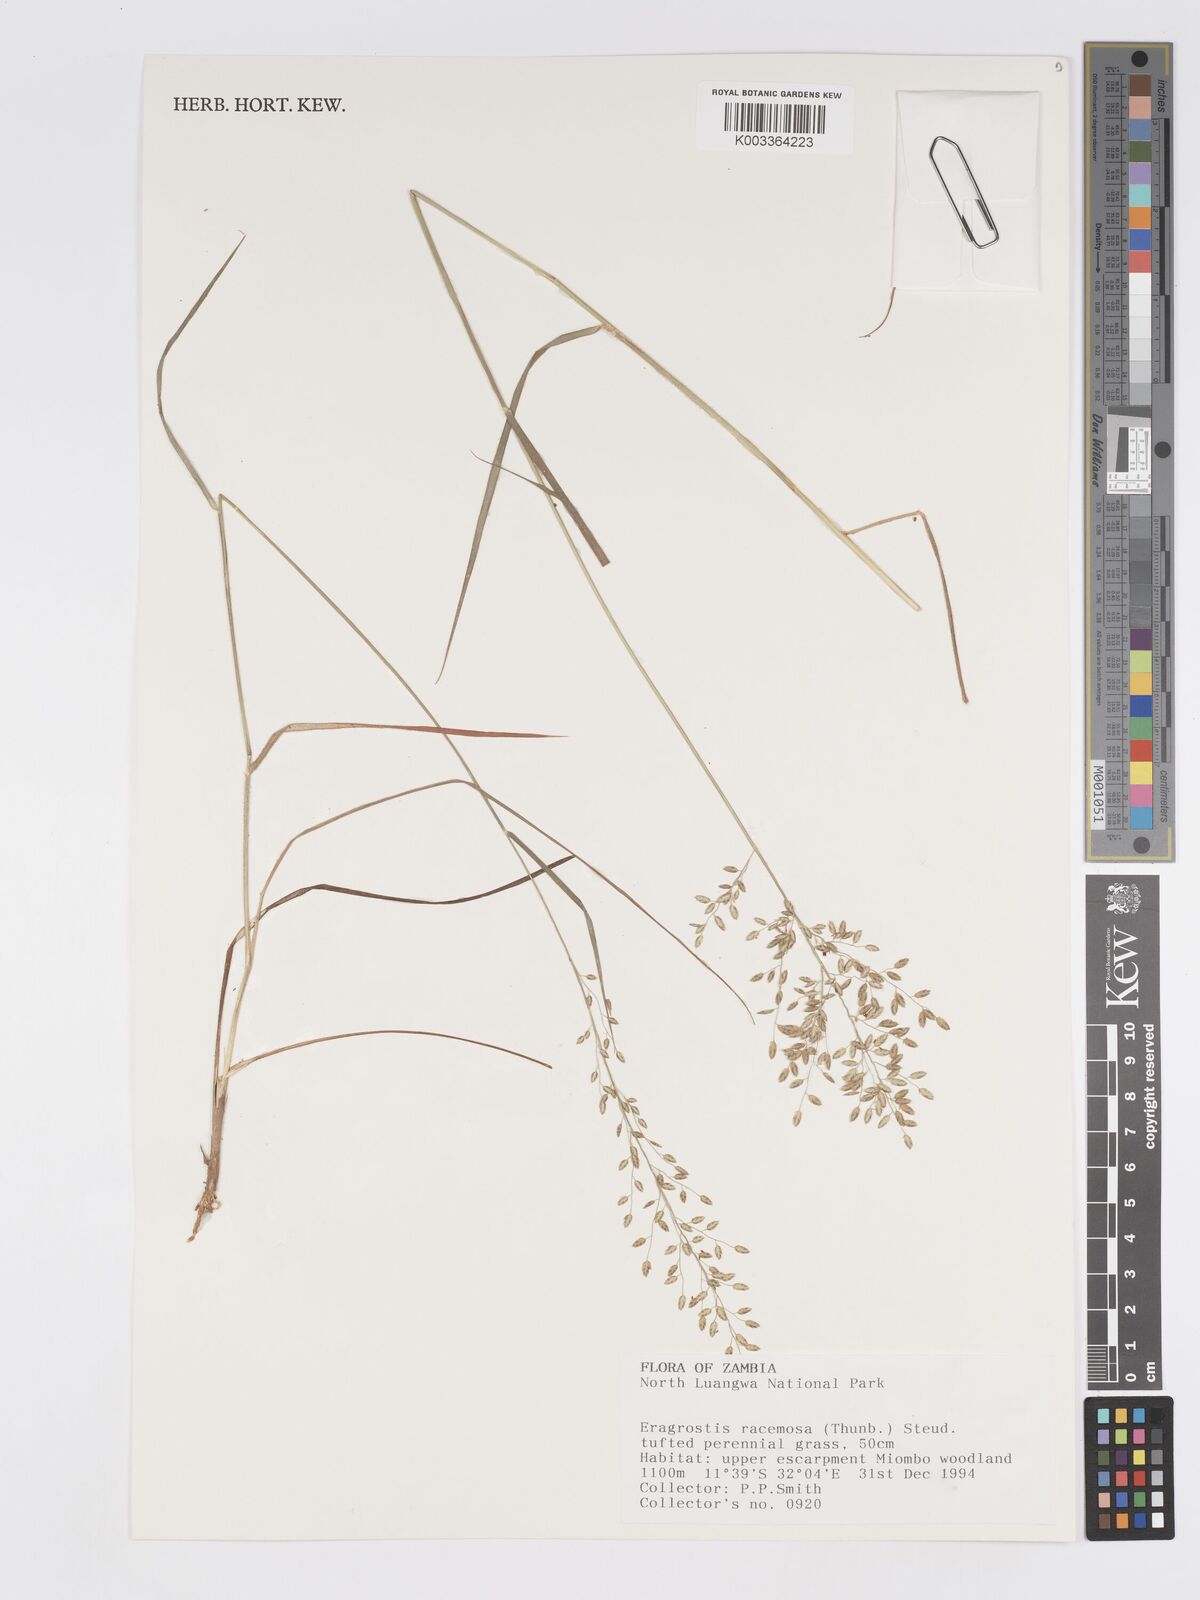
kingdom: Plantae
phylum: Tracheophyta
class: Liliopsida
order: Poales
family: Poaceae
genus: Eragrostis
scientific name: Eragrostis racemosa
